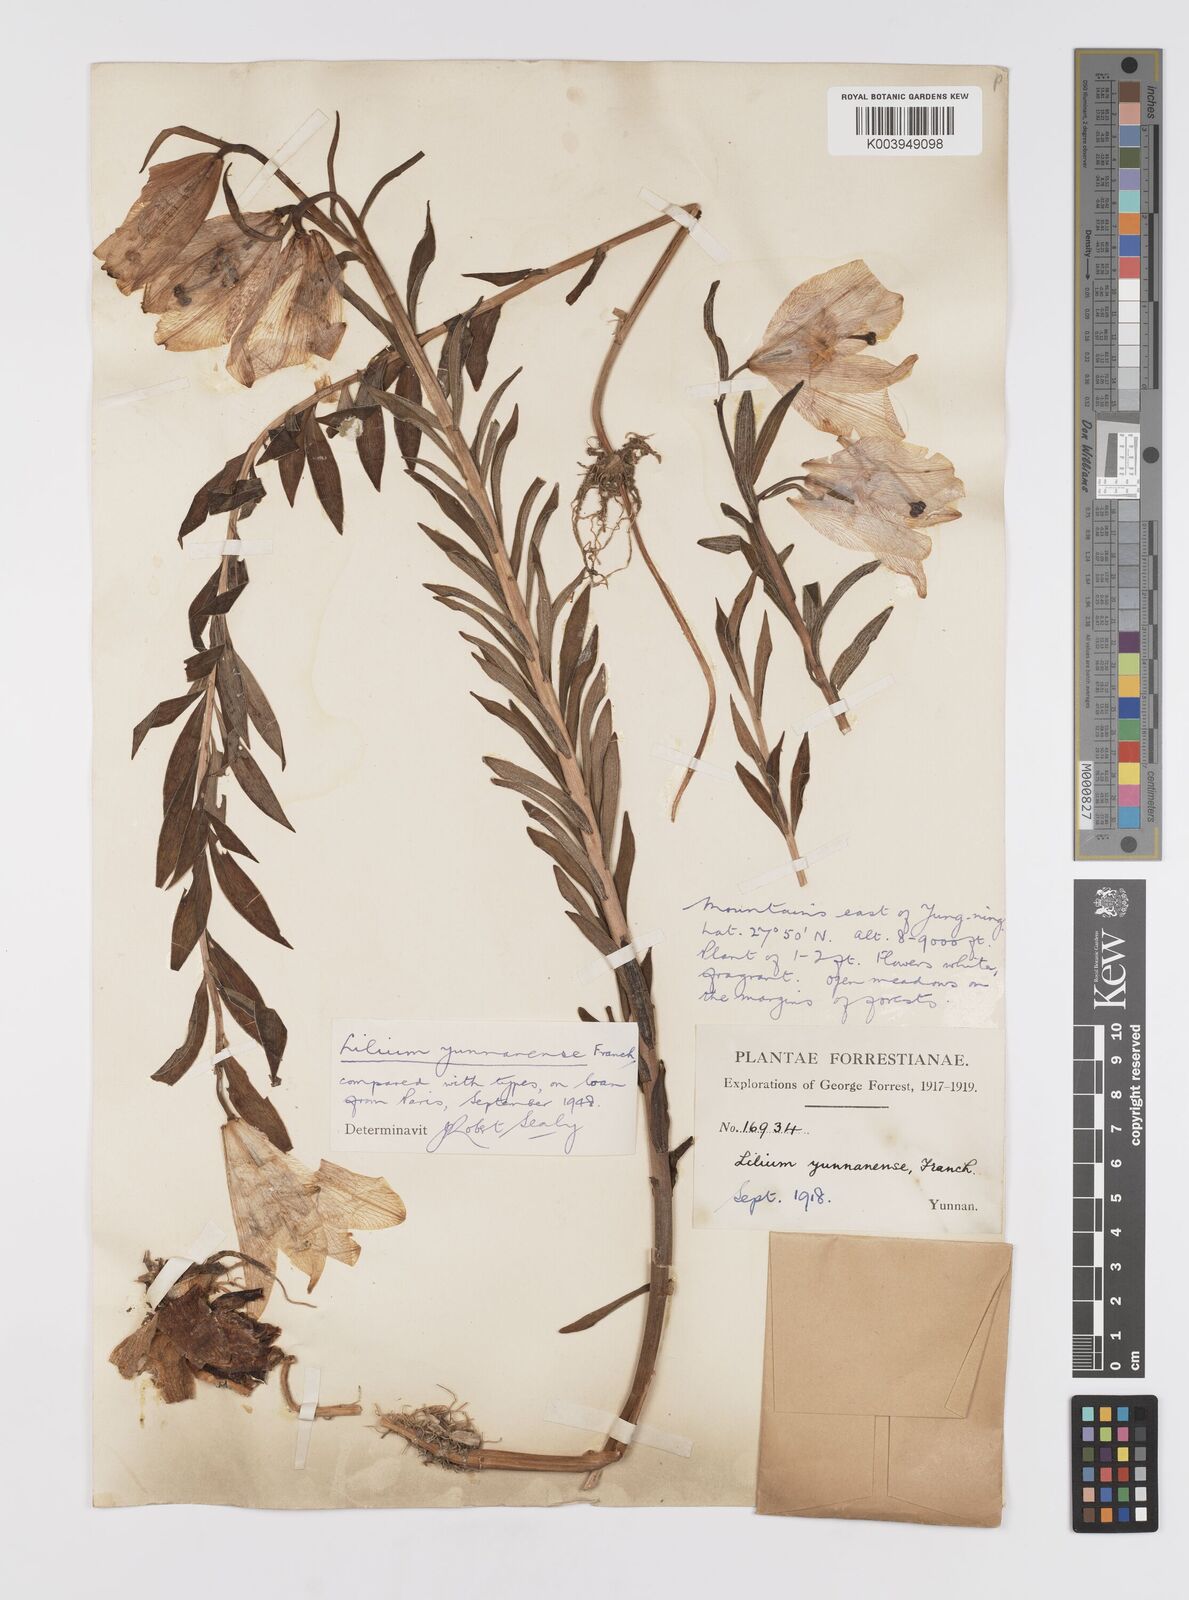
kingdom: Plantae
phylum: Tracheophyta
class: Liliopsida
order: Liliales
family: Liliaceae
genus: Lilium
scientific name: Lilium bakerianum
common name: Baker's lily
